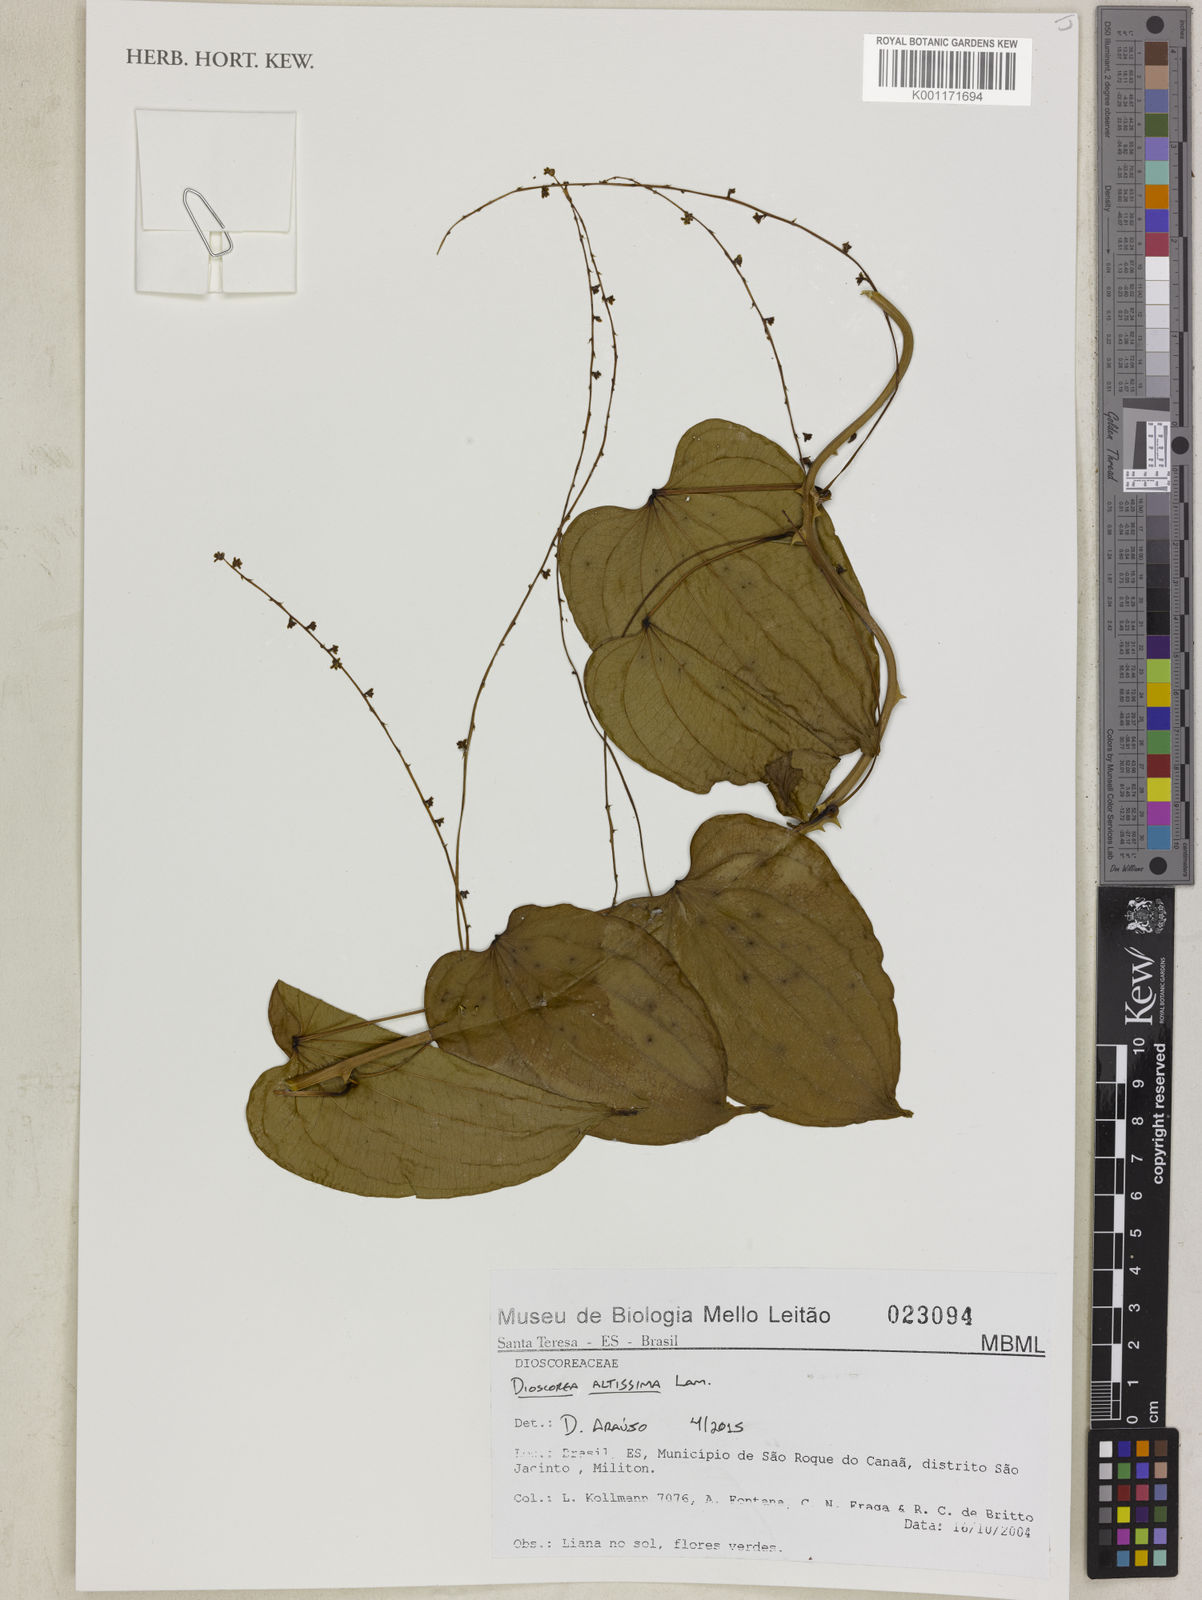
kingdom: Plantae
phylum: Tracheophyta
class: Liliopsida
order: Dioscoreales
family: Dioscoreaceae
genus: Dioscorea
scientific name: Dioscorea chondrocarpa
